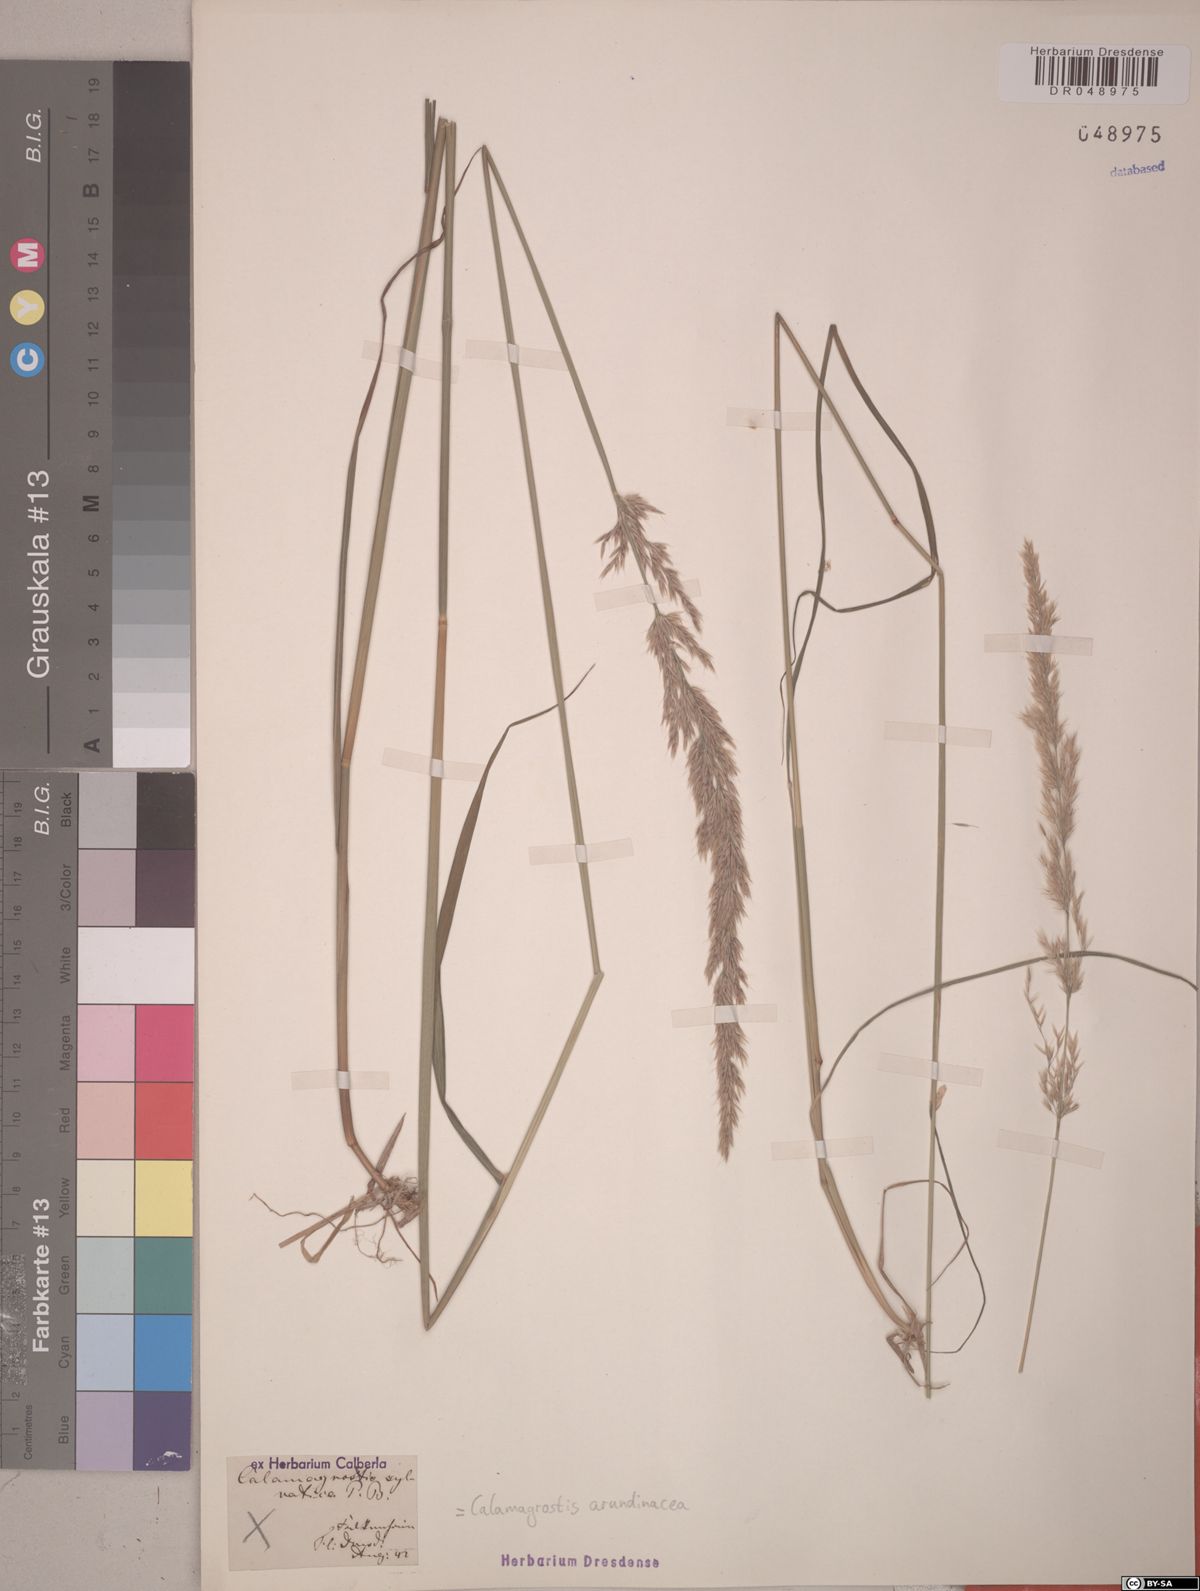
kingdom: Plantae
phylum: Tracheophyta
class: Liliopsida
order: Poales
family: Poaceae
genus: Calamagrostis
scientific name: Calamagrostis arundinacea
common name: Metskastik
